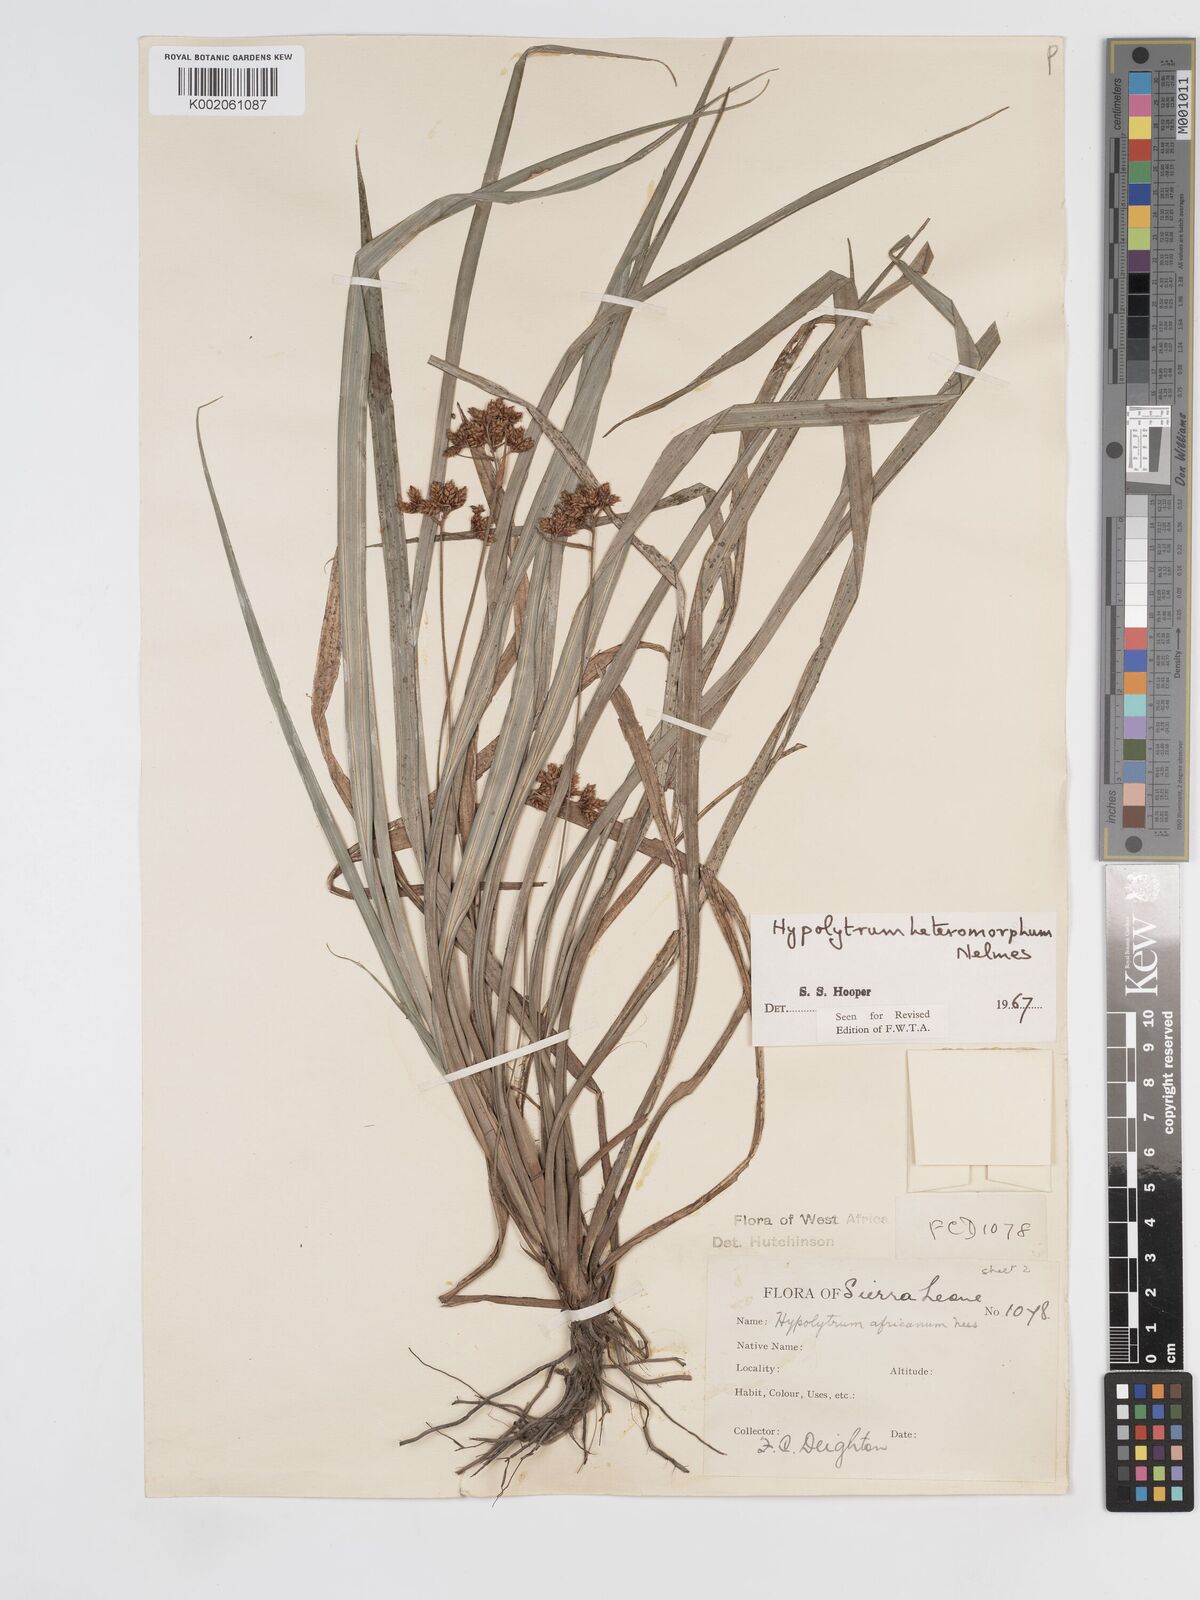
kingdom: Plantae
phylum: Tracheophyta
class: Liliopsida
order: Poales
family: Cyperaceae
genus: Hypolytrum
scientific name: Hypolytrum heteromorphum
